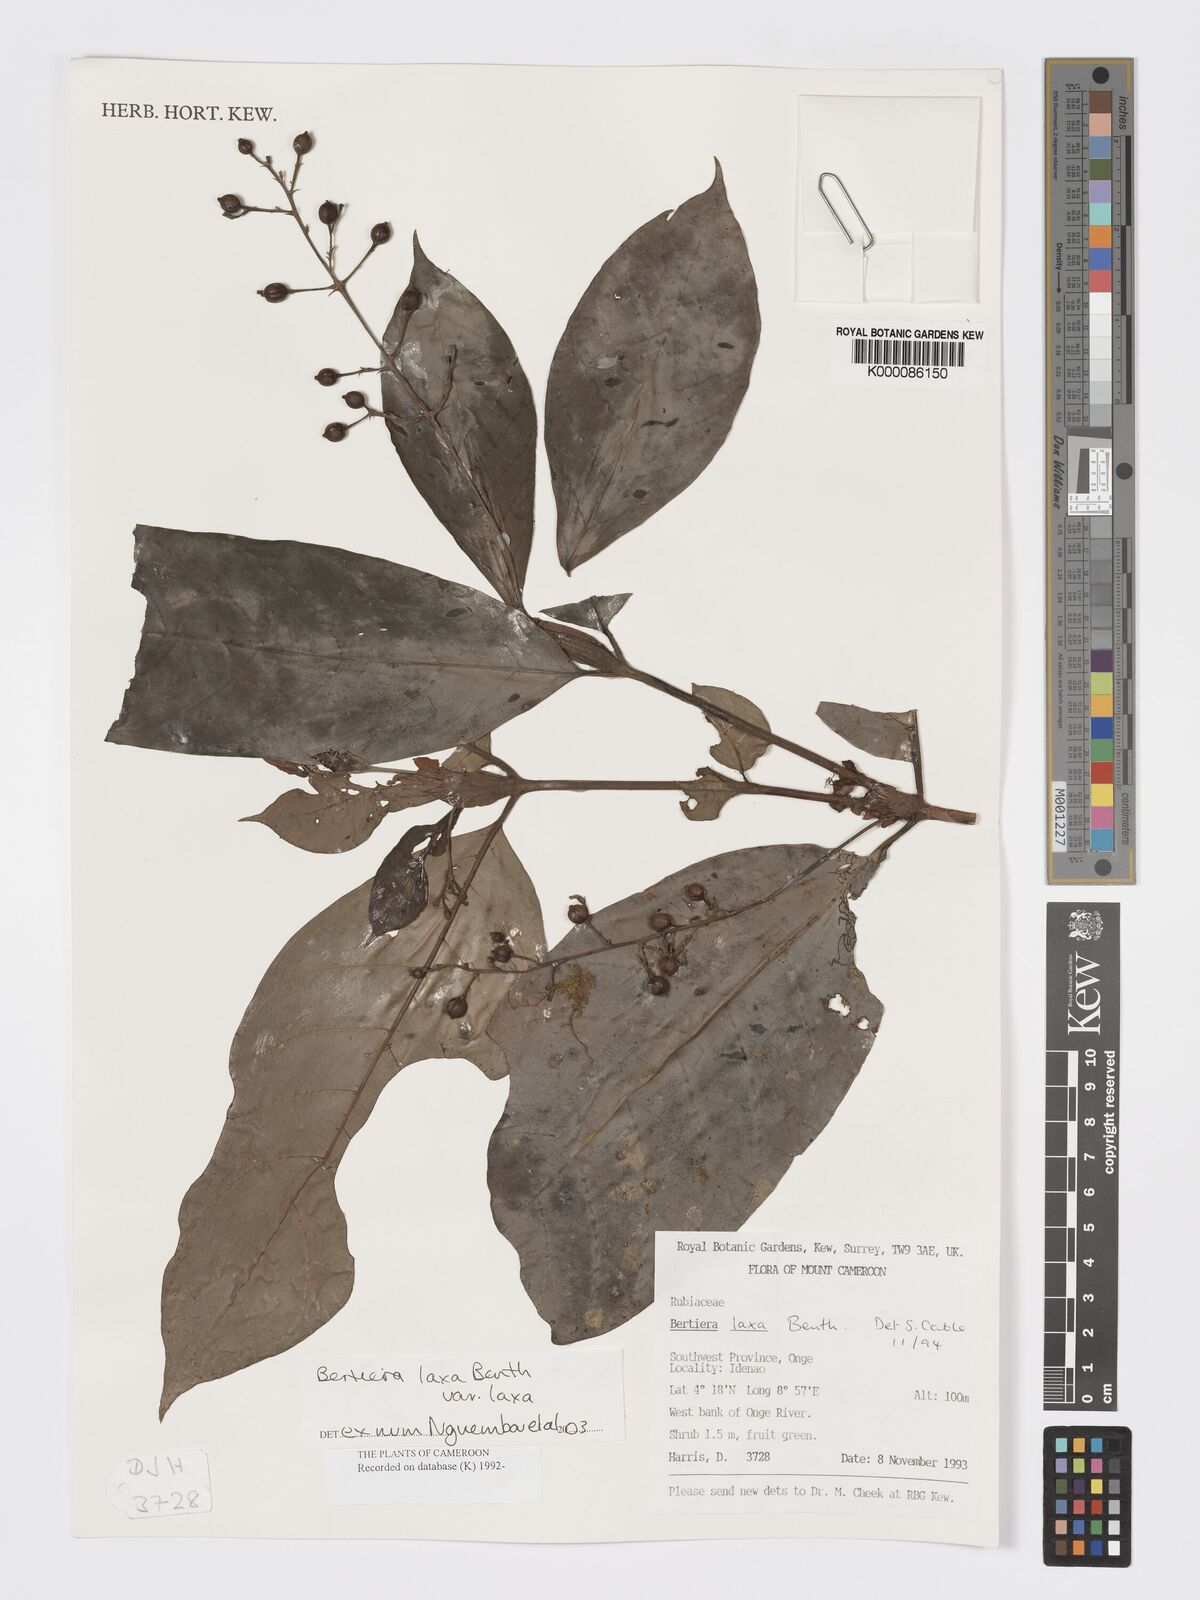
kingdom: Plantae
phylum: Tracheophyta
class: Magnoliopsida
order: Gentianales
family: Rubiaceae
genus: Bertiera
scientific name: Bertiera laxa
